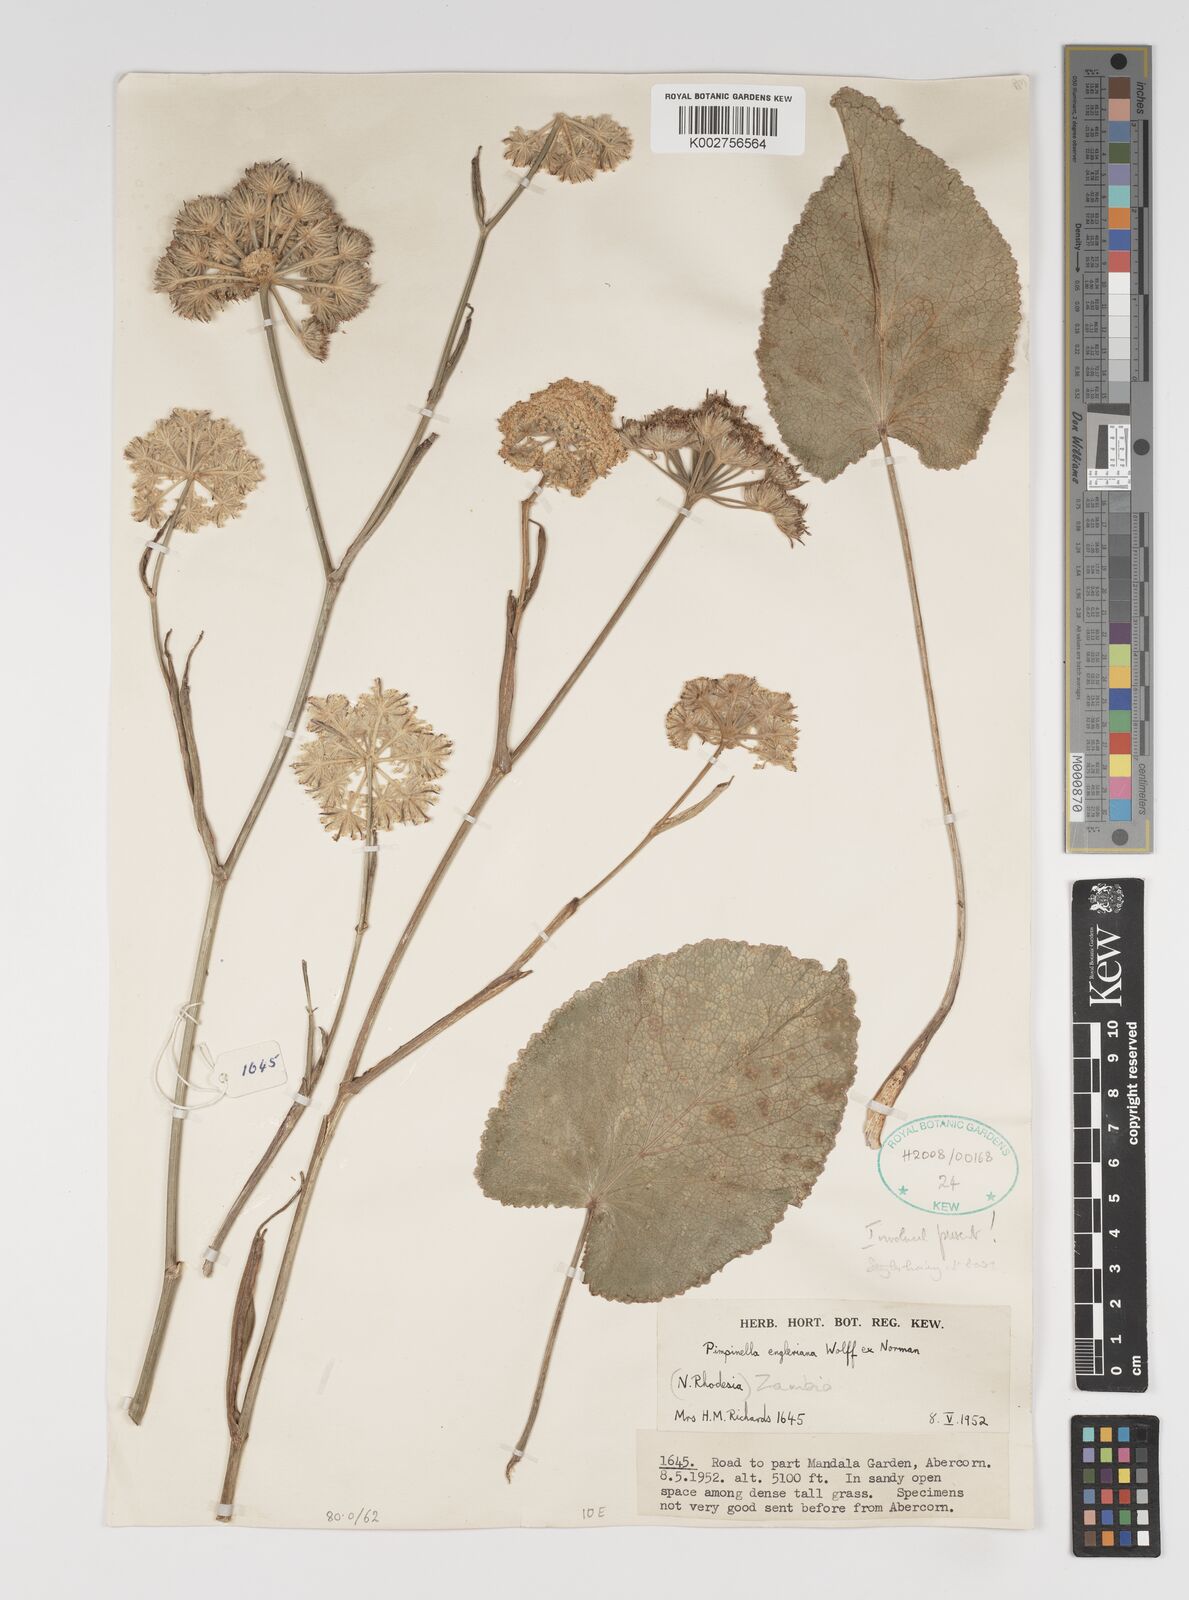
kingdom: Plantae
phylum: Tracheophyta
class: Magnoliopsida
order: Apiales
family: Apiaceae
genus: Pimpinella
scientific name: Pimpinella kingdon-wardii
